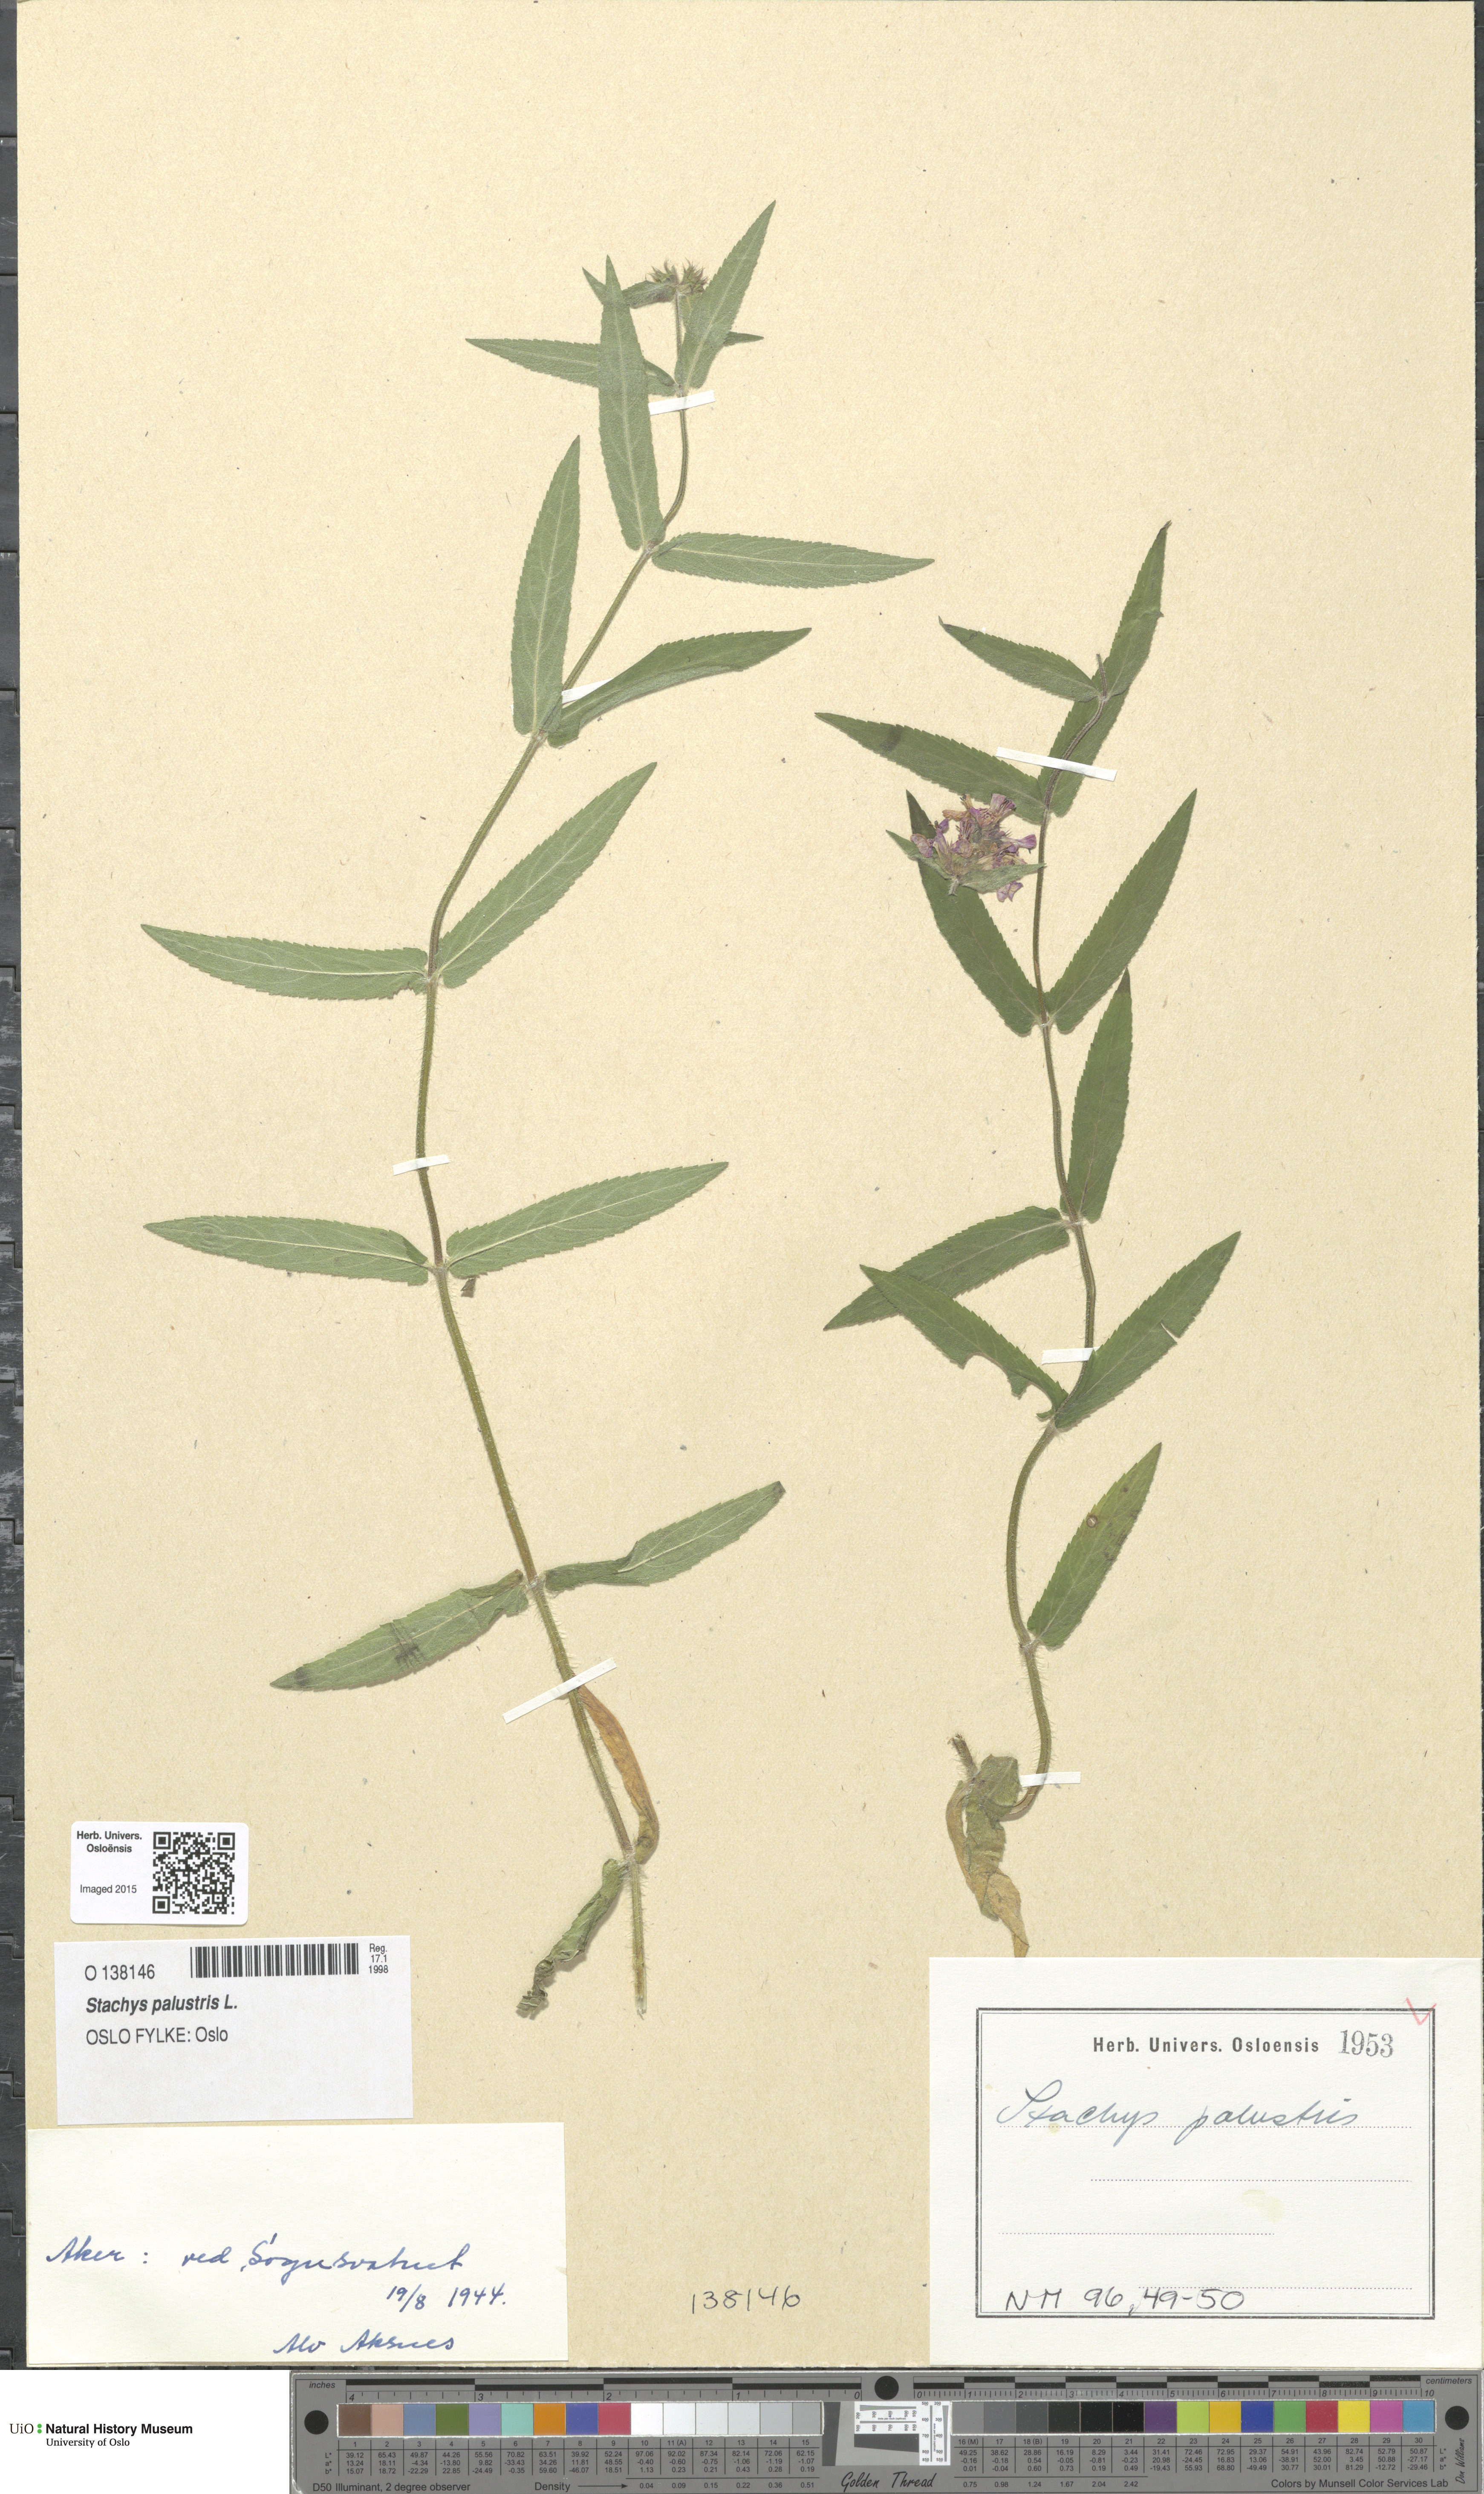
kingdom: Plantae
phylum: Tracheophyta
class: Magnoliopsida
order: Lamiales
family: Lamiaceae
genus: Stachys
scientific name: Stachys palustris
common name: Marsh woundwort
